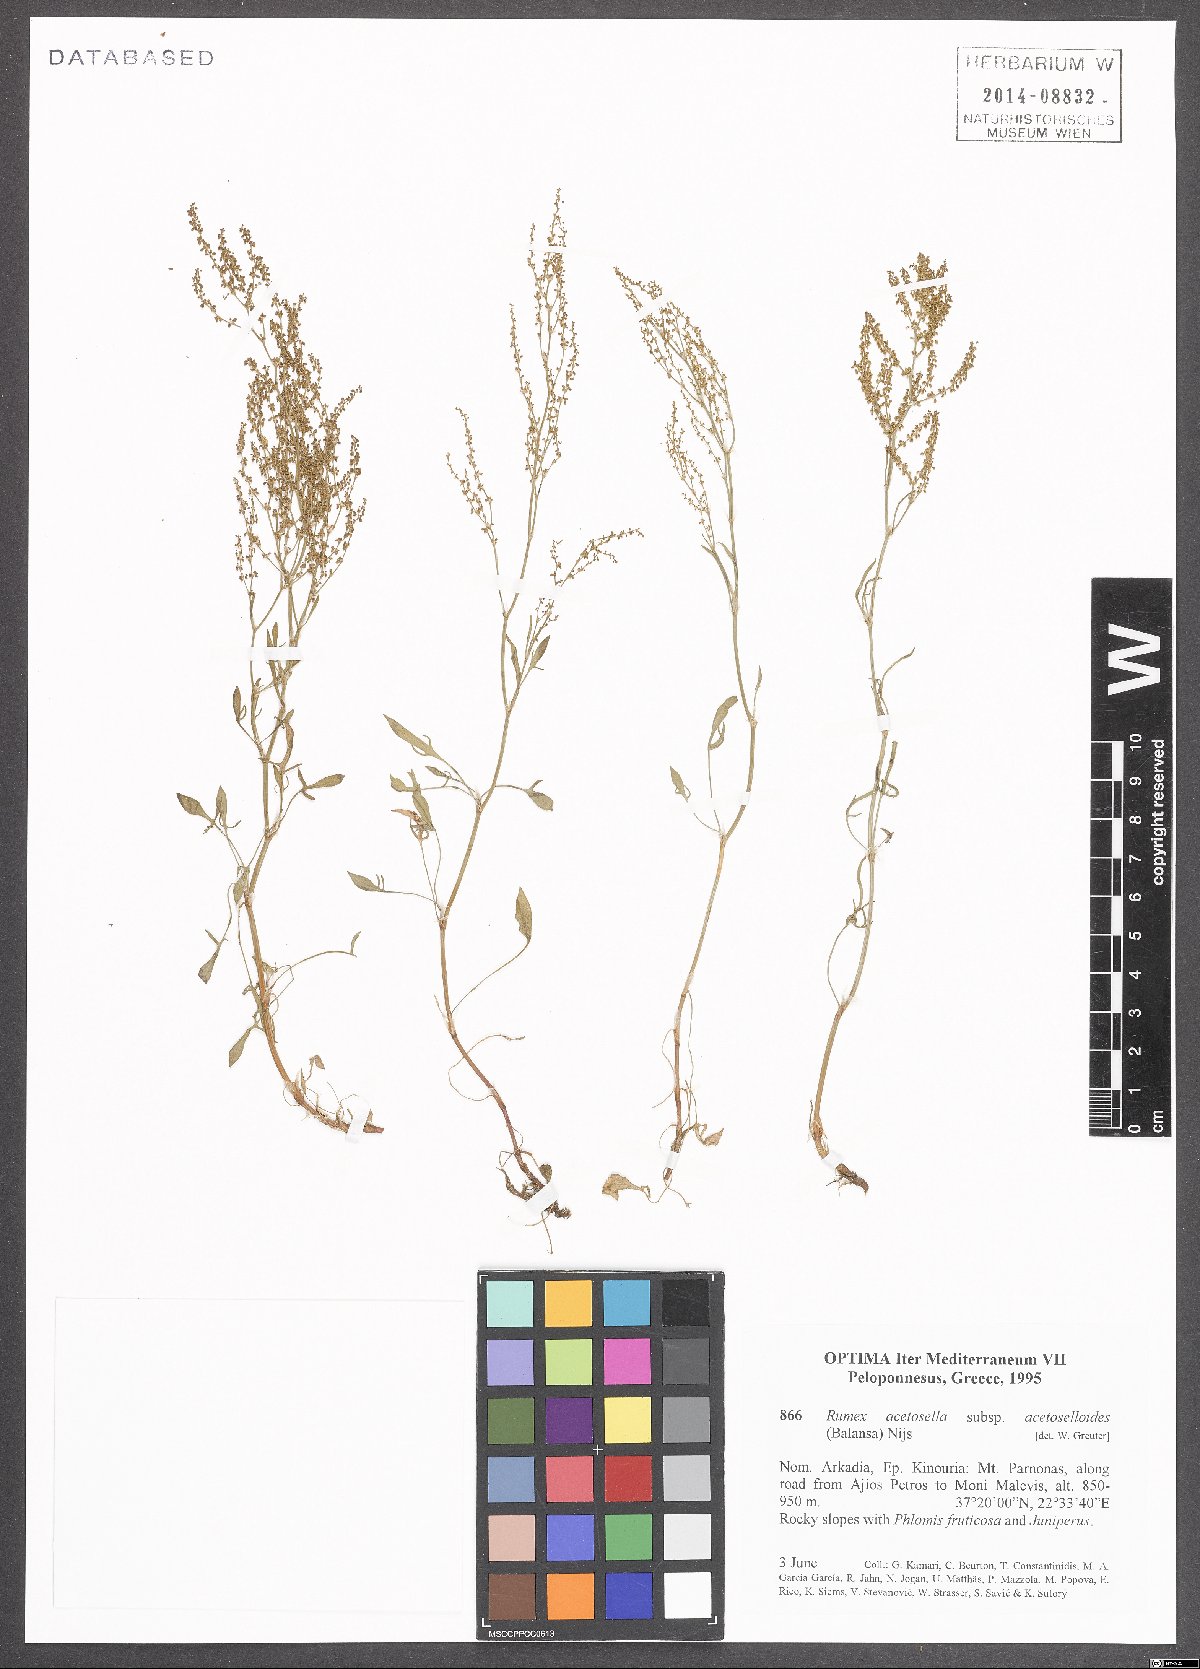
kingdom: Plantae
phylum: Tracheophyta
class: Magnoliopsida
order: Caryophyllales
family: Polygonaceae
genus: Rumex
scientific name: Rumex acetosella
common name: Common sheep sorrel
